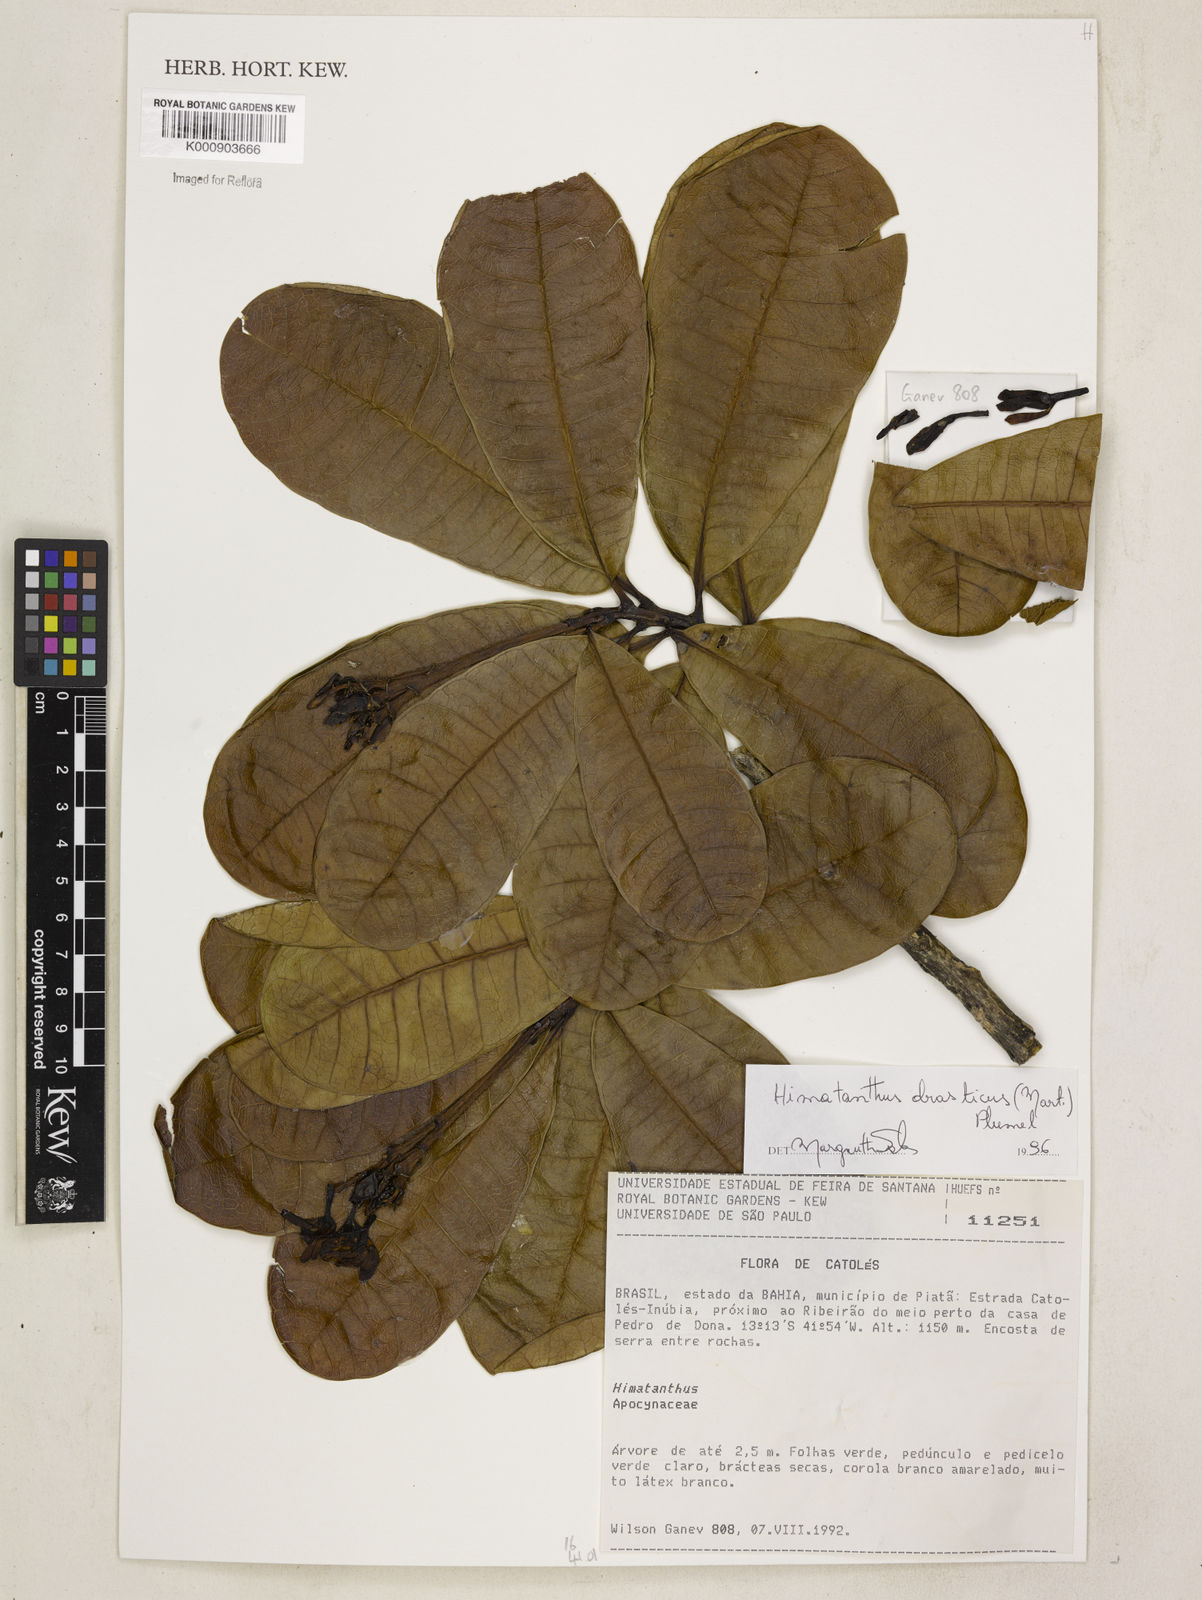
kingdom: Plantae
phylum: Tracheophyta
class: Magnoliopsida
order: Gentianales
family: Apocynaceae
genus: Himatanthus
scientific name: Himatanthus drasticus
